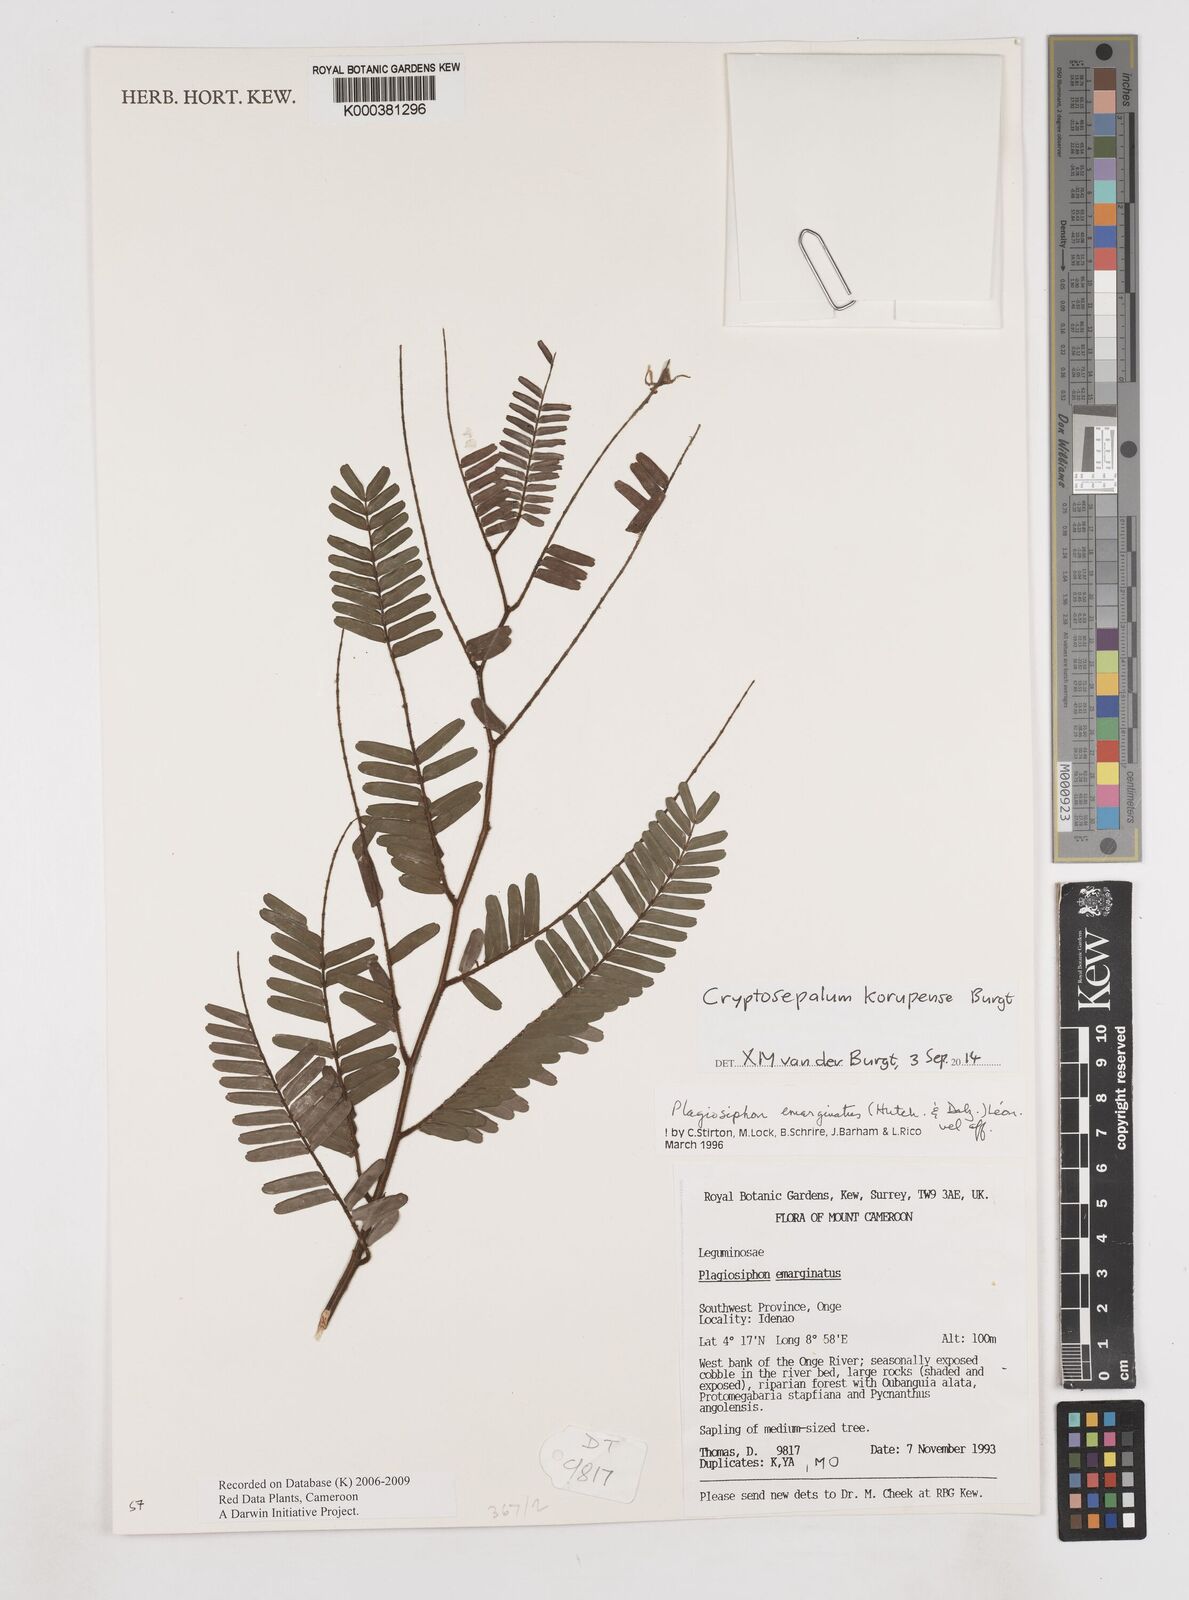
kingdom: Plantae
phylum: Tracheophyta
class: Magnoliopsida
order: Fabales
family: Fabaceae
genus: Plagiosiphon
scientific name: Plagiosiphon
